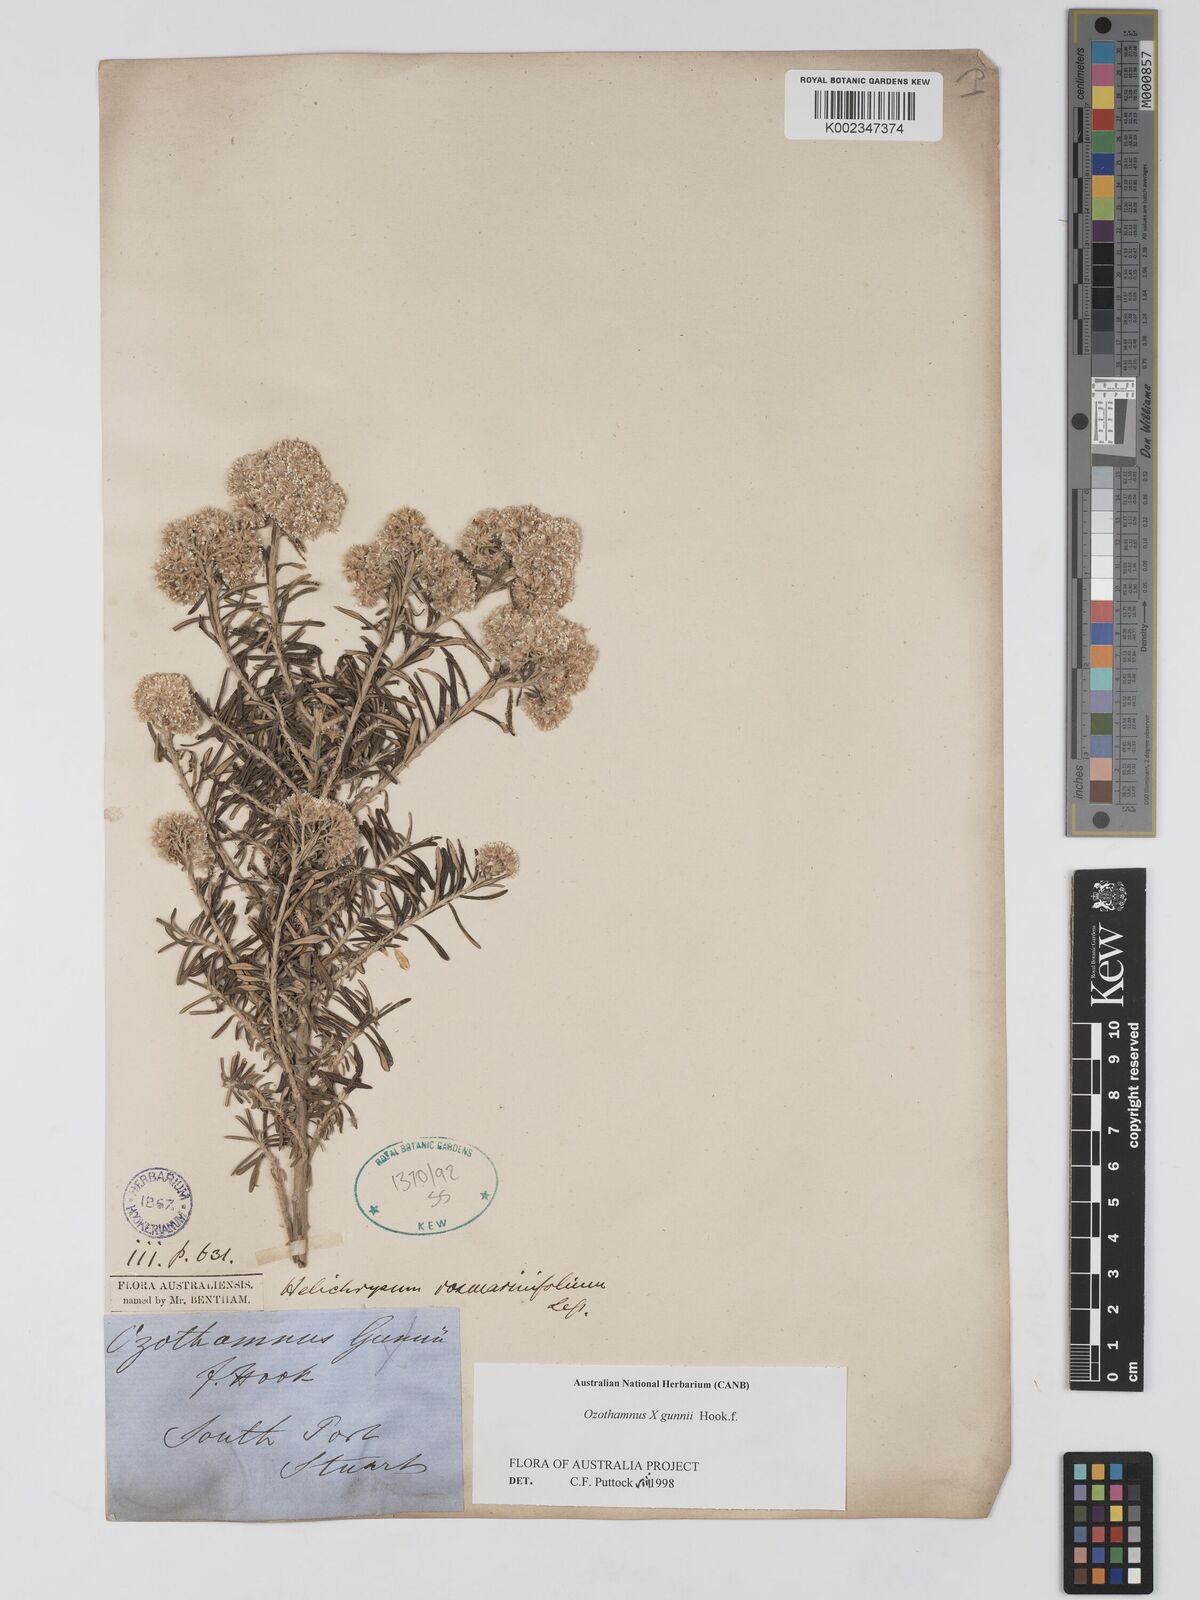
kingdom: Plantae
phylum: Tracheophyta
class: Magnoliopsida
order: Asterales
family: Asteraceae
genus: Ozothamnus
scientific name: Ozothamnus gunnii
